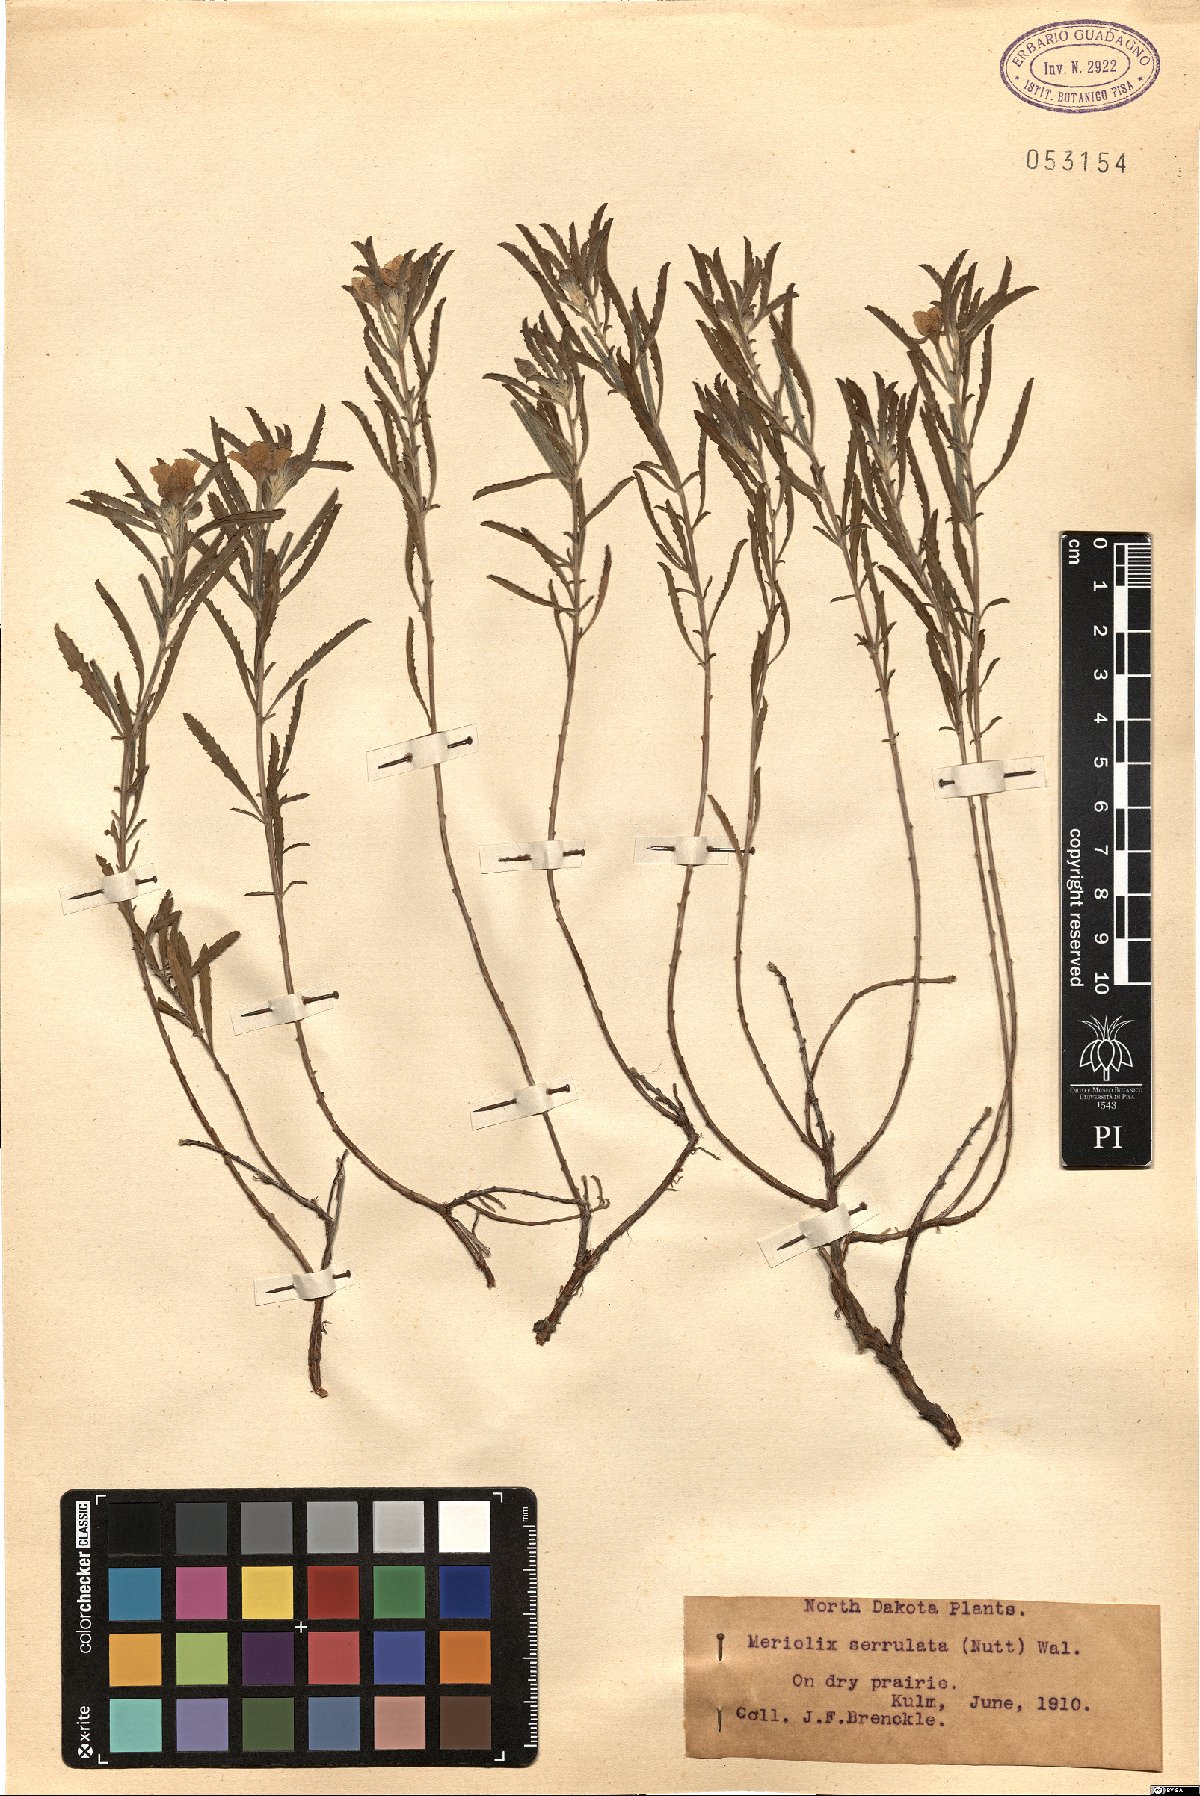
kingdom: Plantae
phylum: Tracheophyta
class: Magnoliopsida
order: Myrtales
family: Onagraceae
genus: Oenothera
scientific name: Oenothera serrulata
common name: Half-shrub calylophus
